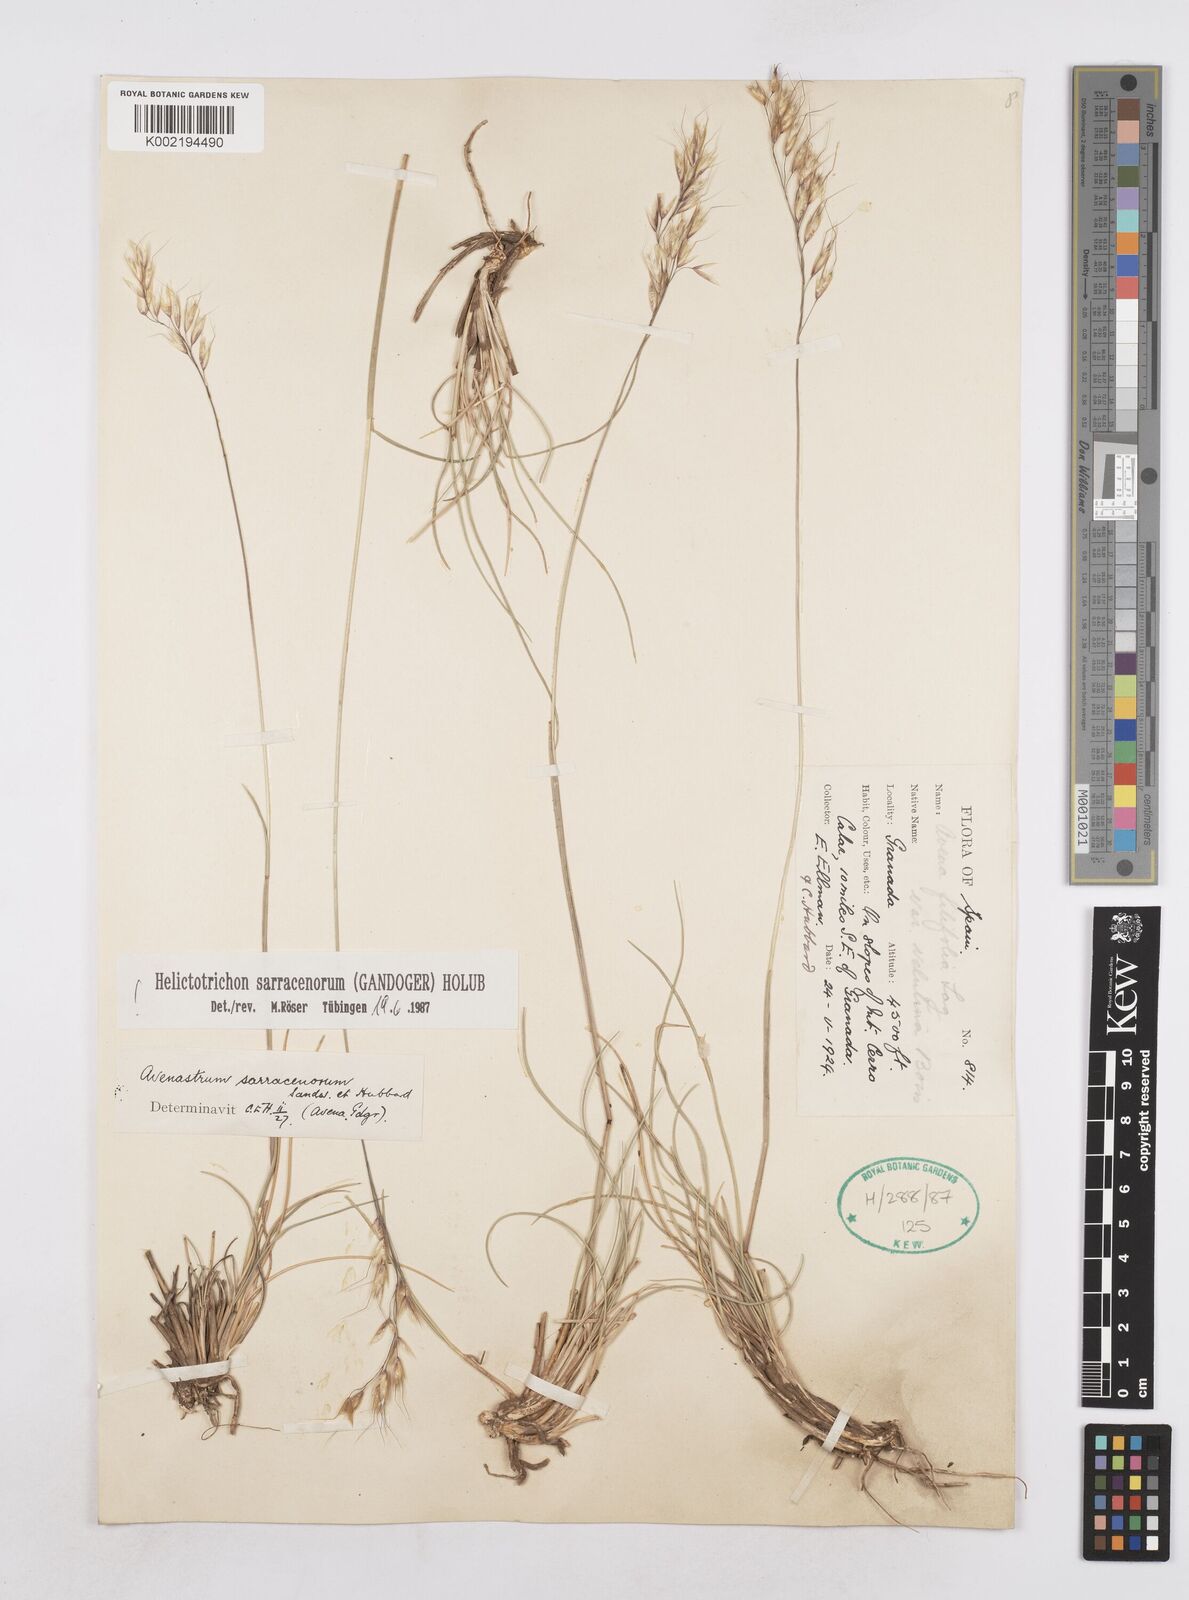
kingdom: Plantae
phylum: Tracheophyta
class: Liliopsida
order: Poales
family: Poaceae
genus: Helictotrichon
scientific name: Helictotrichon sarracenorum
